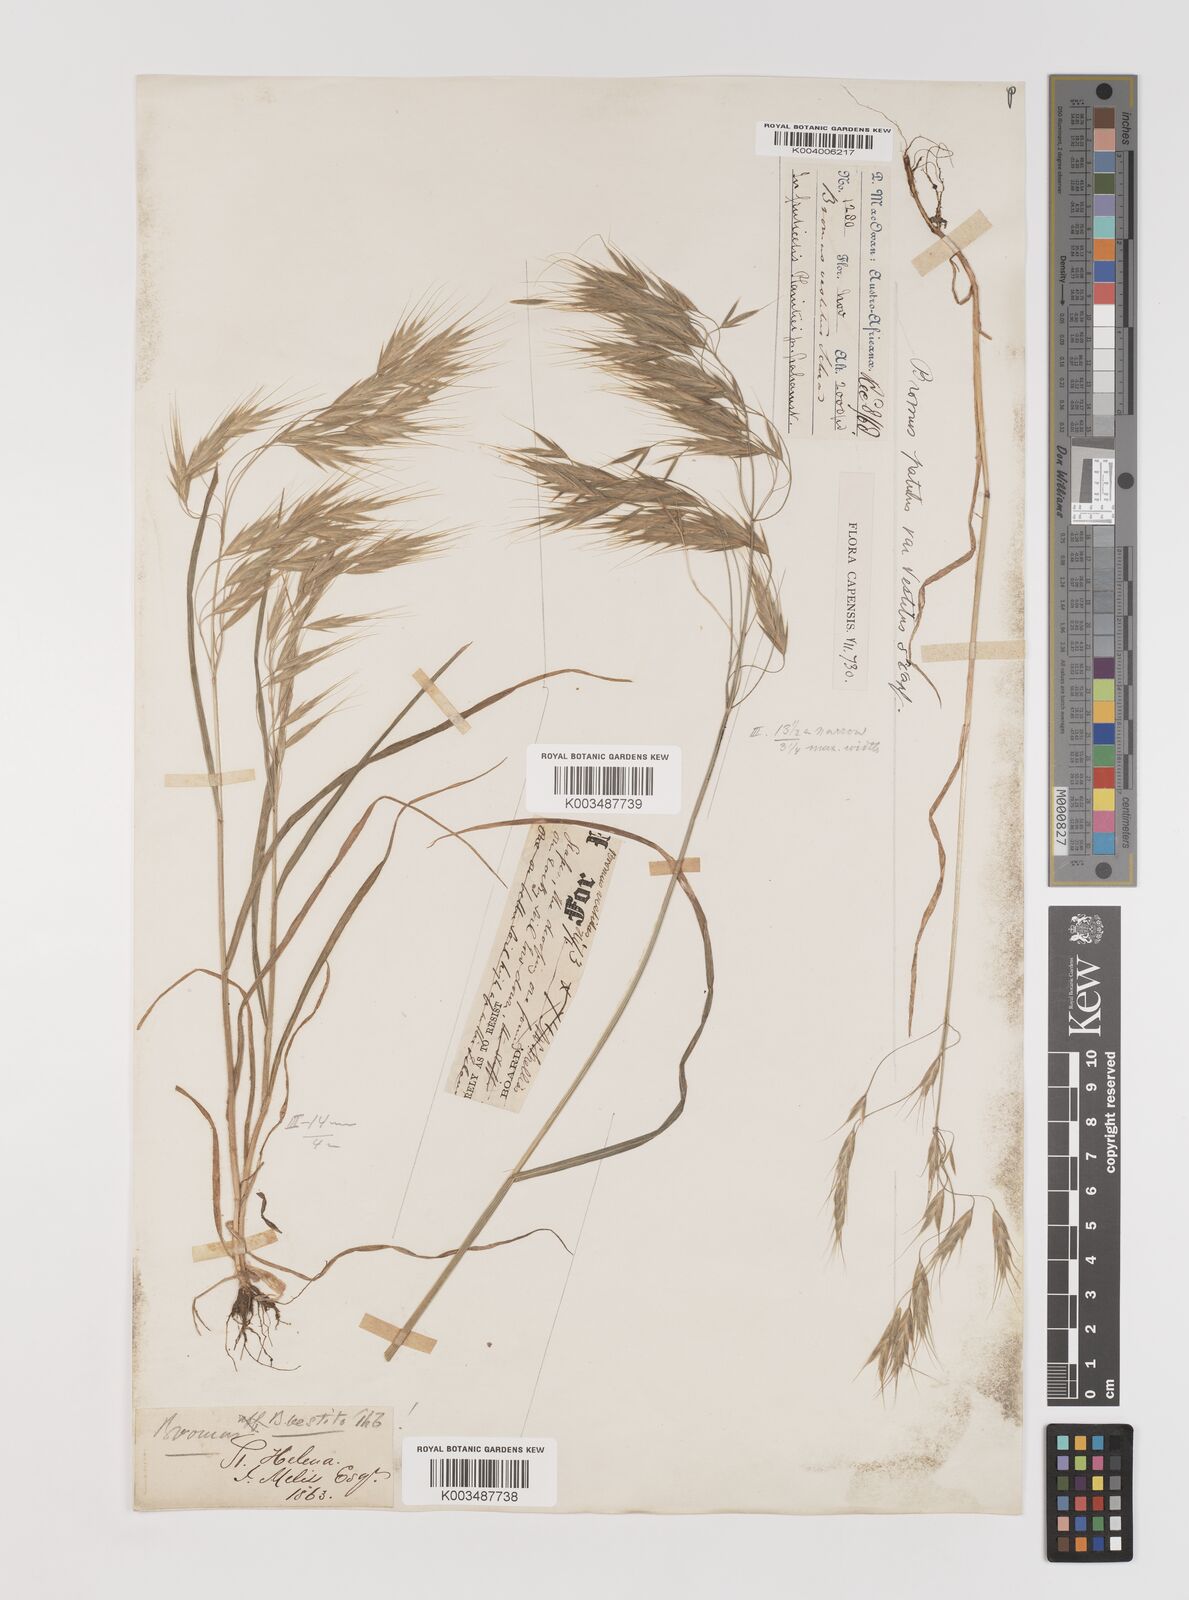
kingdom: Plantae
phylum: Tracheophyta
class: Liliopsida
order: Poales
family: Poaceae
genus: Bromus
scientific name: Bromus pectinatus
